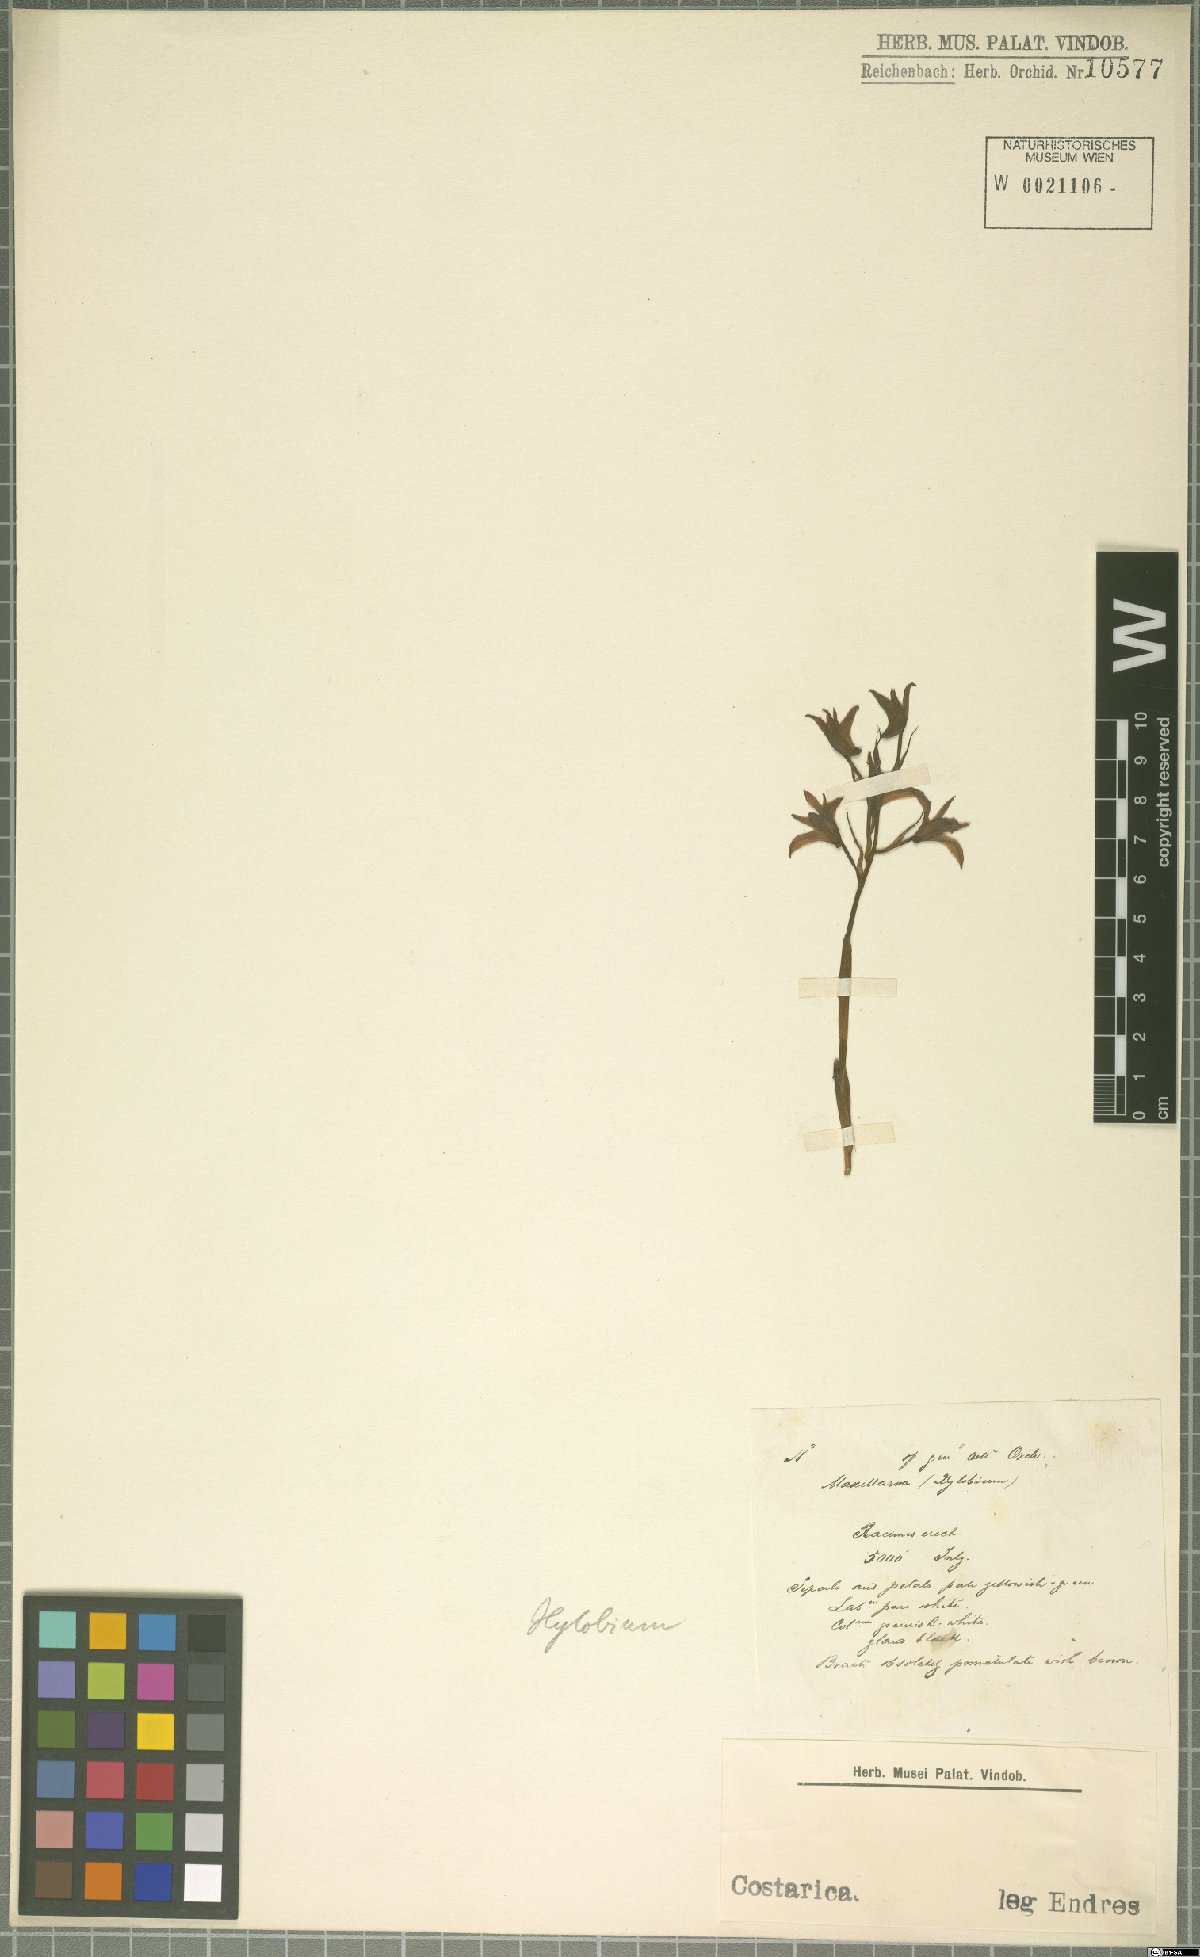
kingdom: Plantae
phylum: Tracheophyta
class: Liliopsida
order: Asparagales
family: Orchidaceae
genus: Xylobium
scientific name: Xylobium
